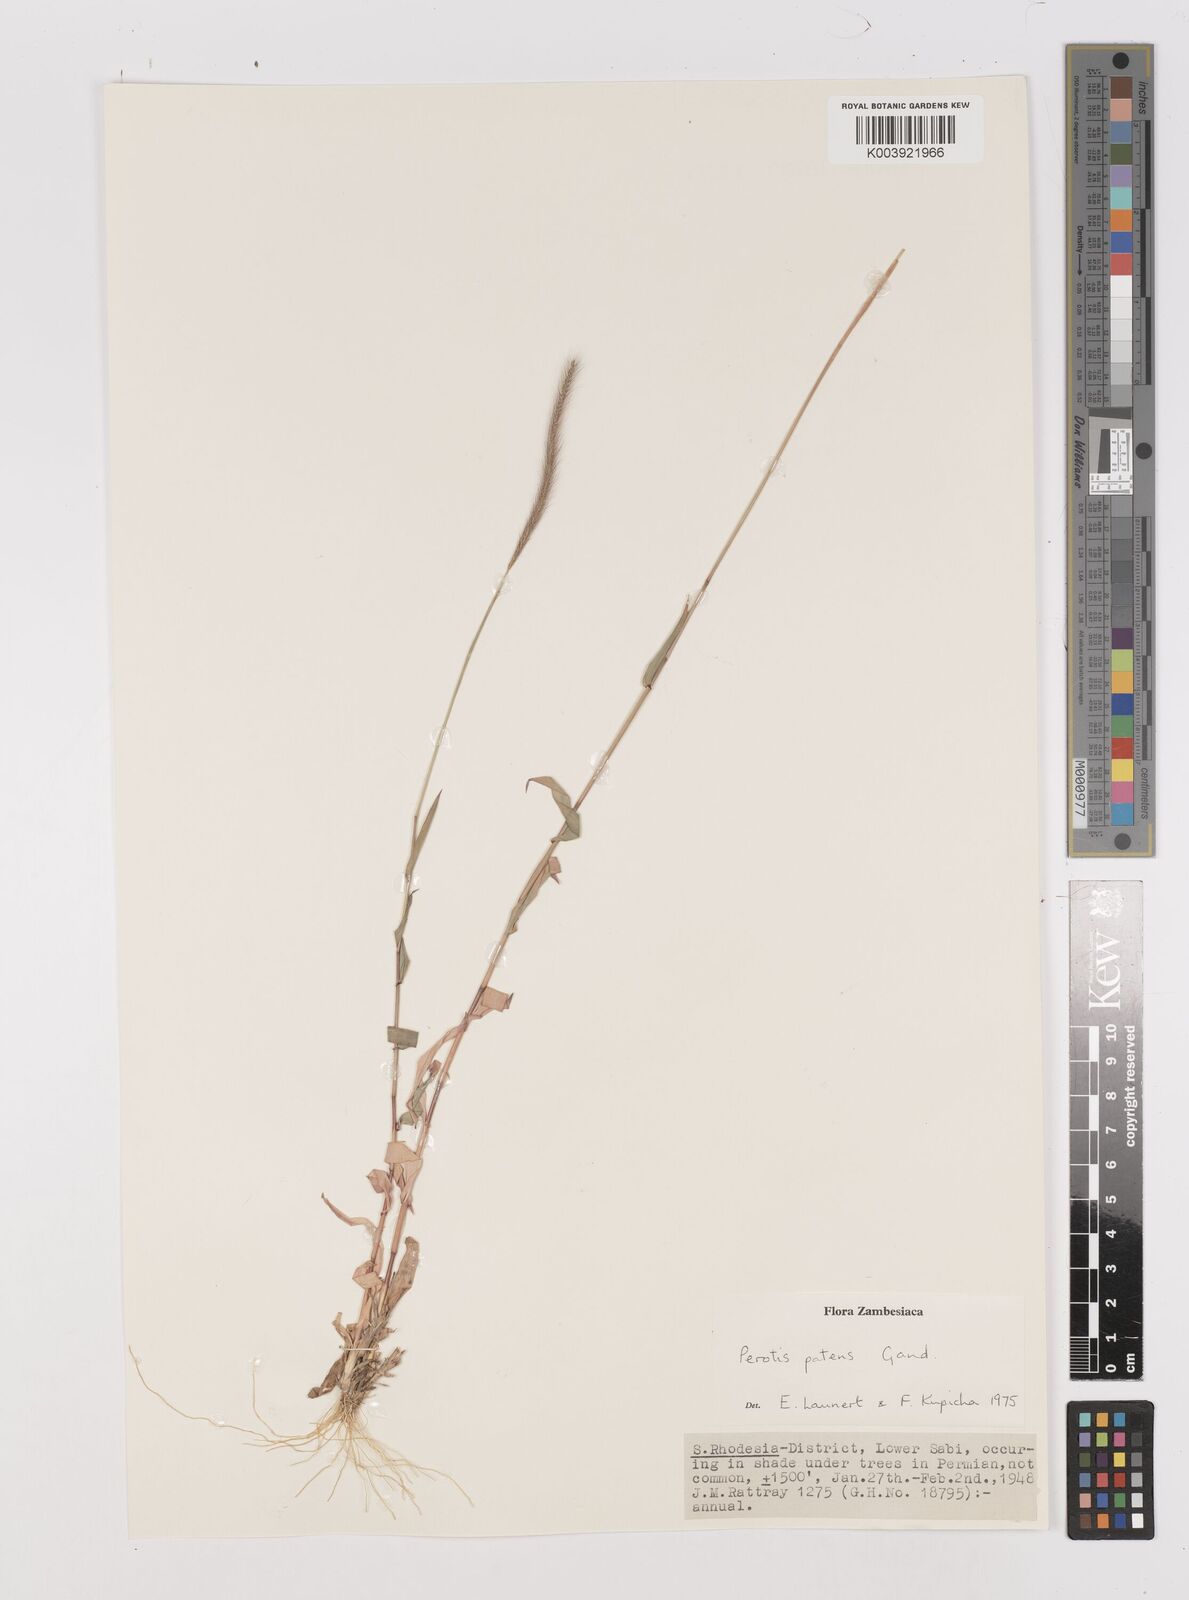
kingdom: Plantae
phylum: Tracheophyta
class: Liliopsida
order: Poales
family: Poaceae
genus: Perotis
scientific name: Perotis patens
